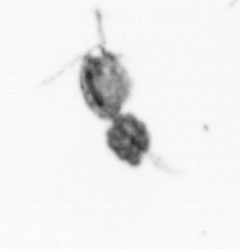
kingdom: Animalia
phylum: Arthropoda
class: Copepoda
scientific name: Copepoda
